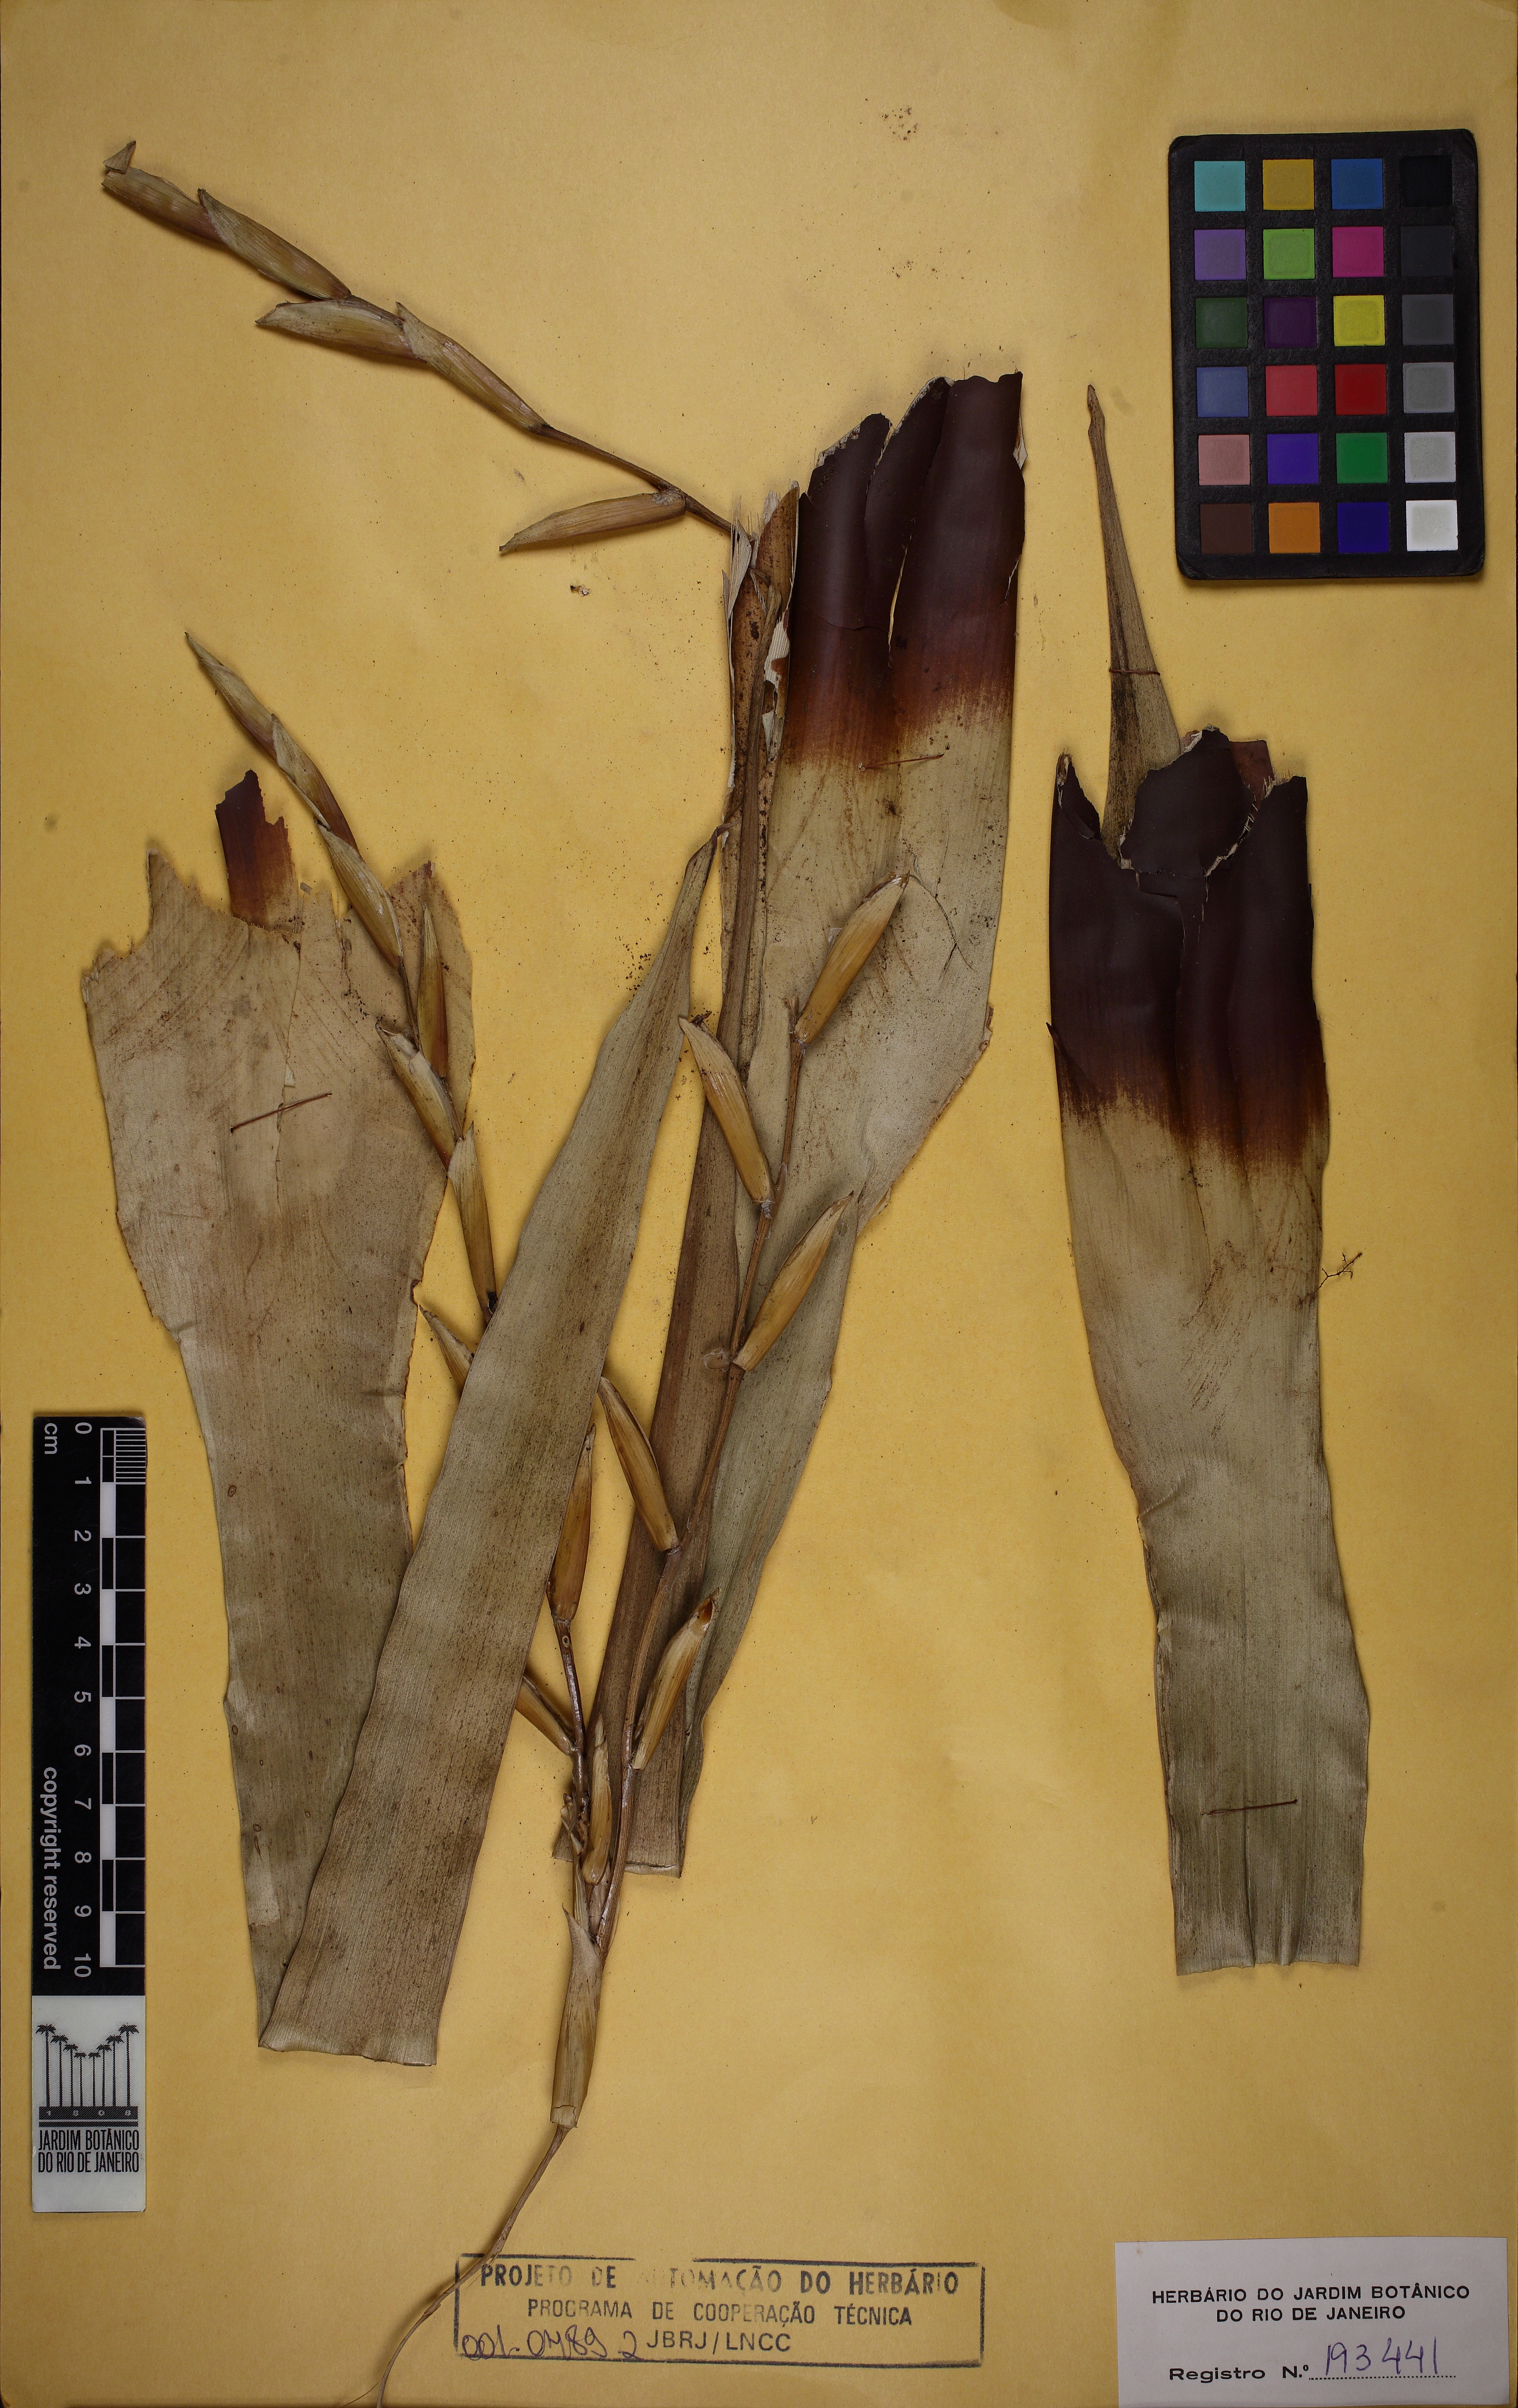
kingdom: Plantae
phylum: Tracheophyta
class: Liliopsida
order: Poales
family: Bromeliaceae
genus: Vriesea
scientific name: Vriesea neoglutinosa
